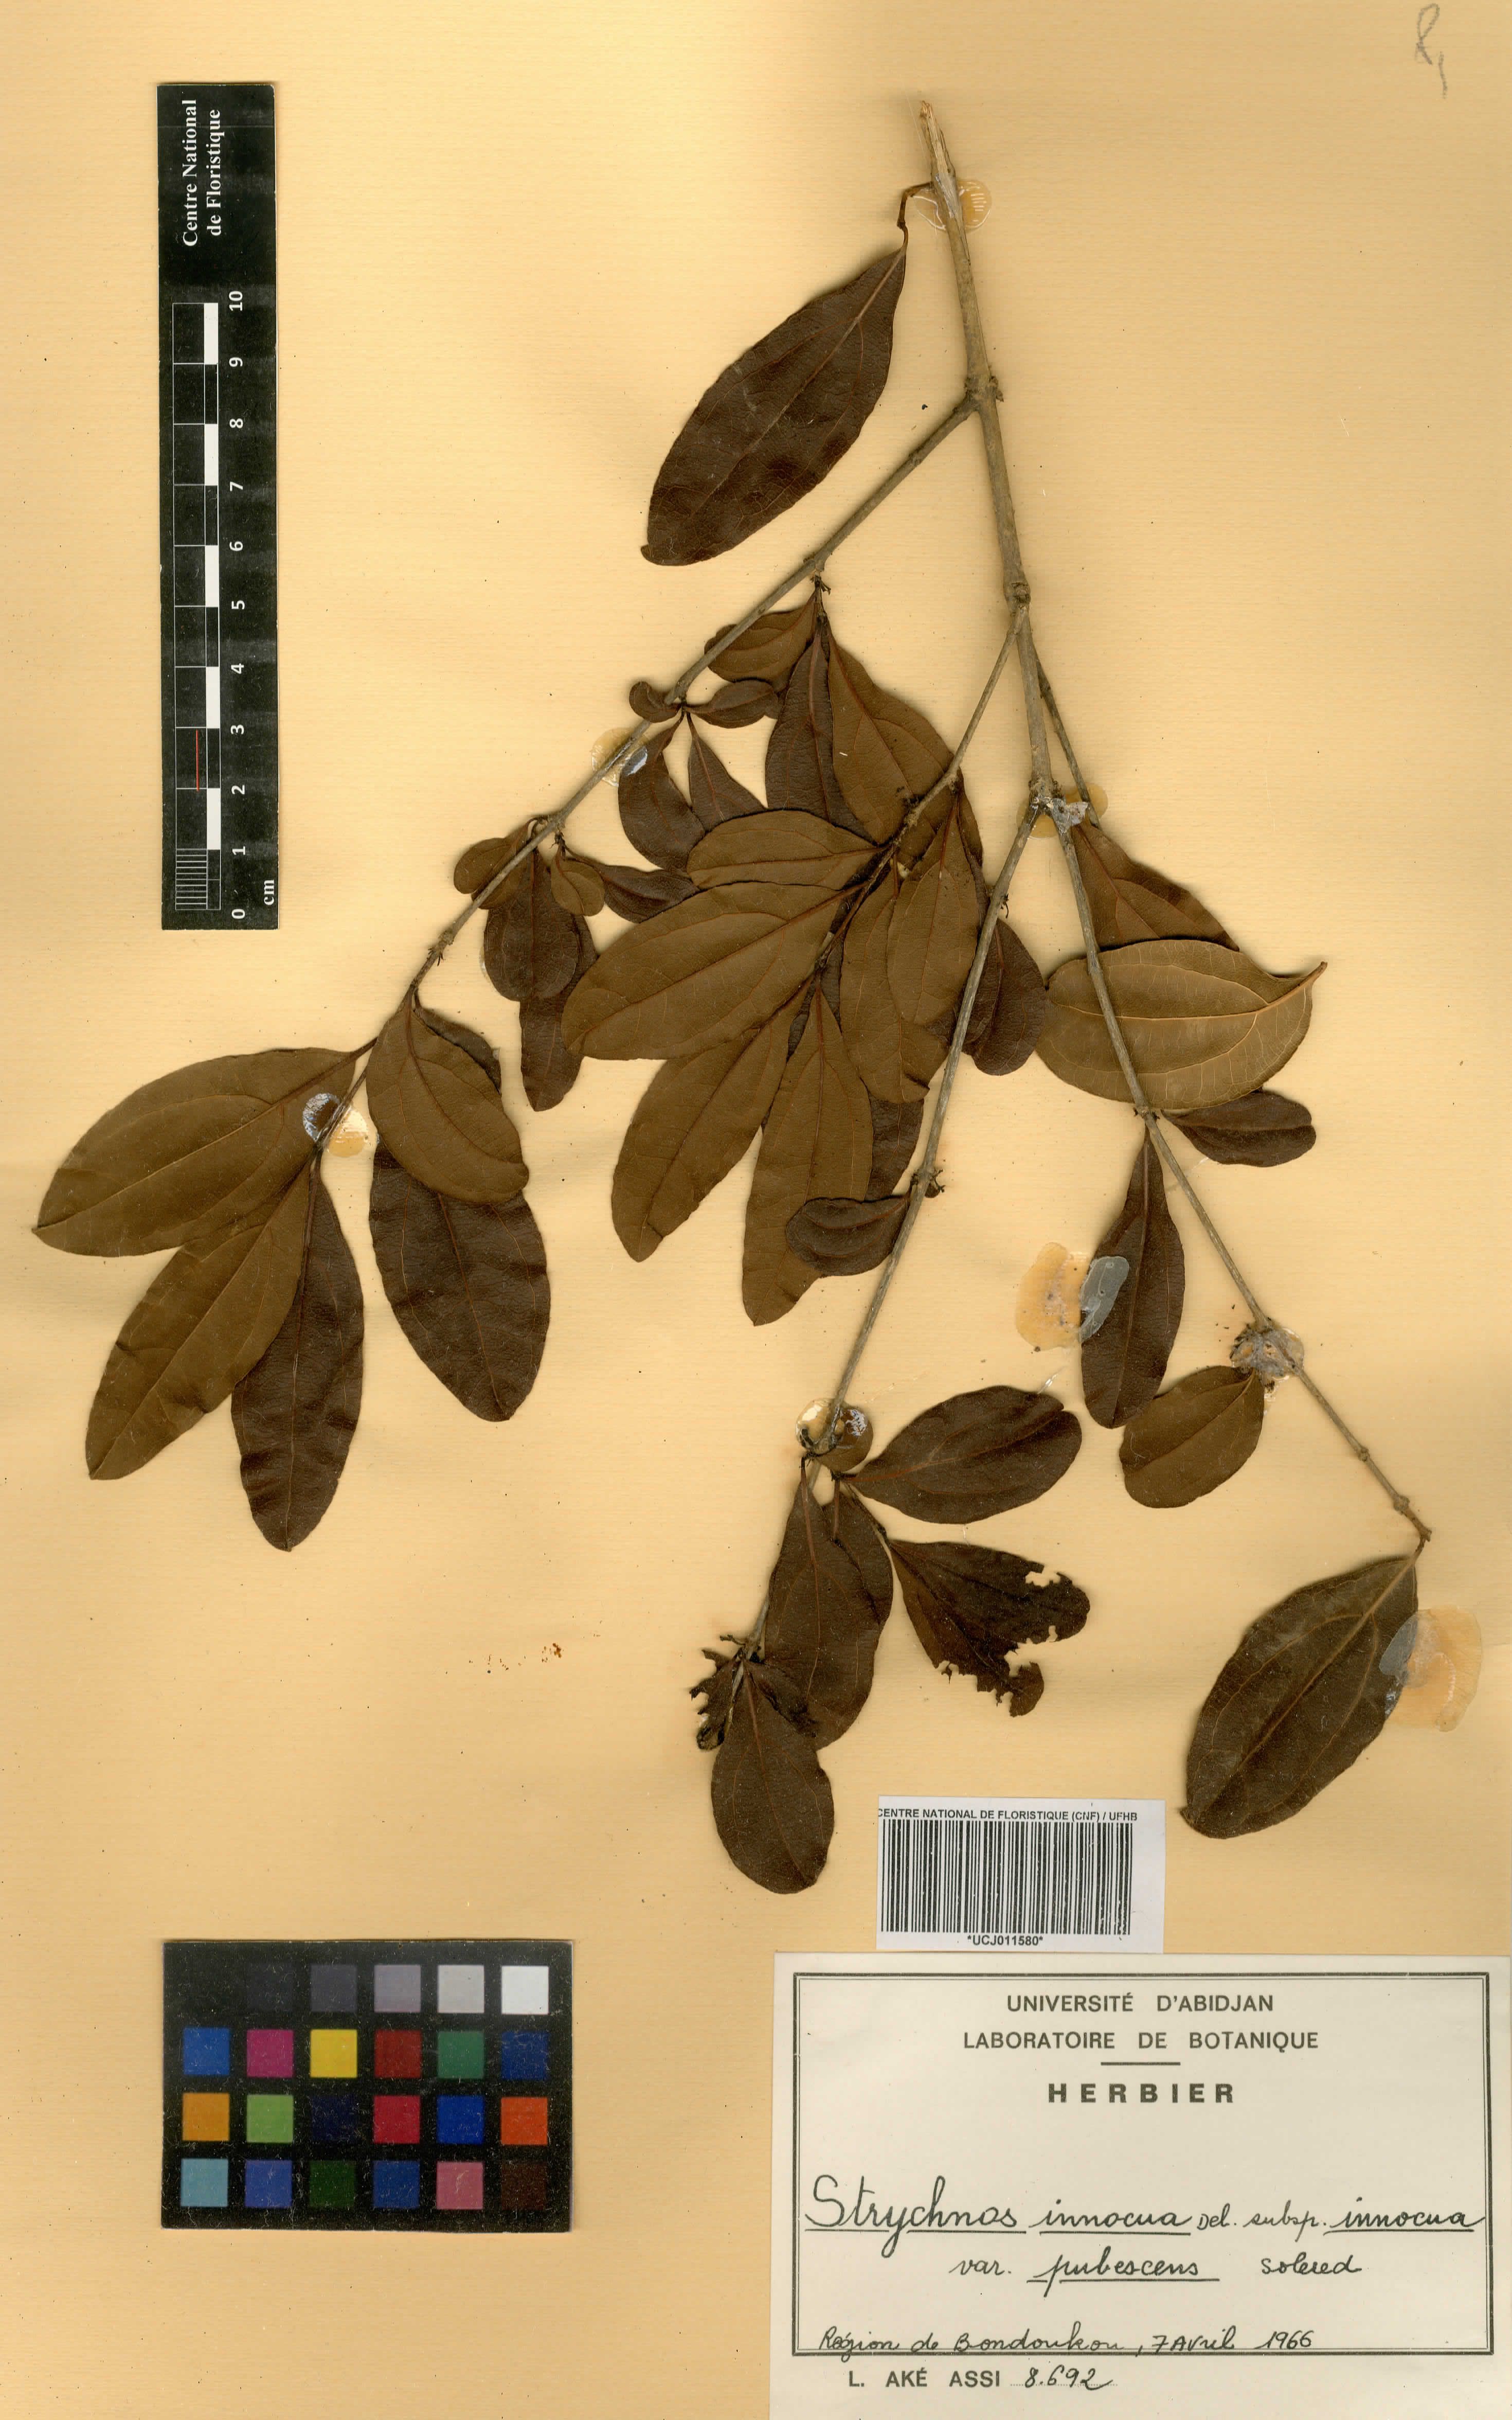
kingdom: Plantae
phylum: Tracheophyta
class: Magnoliopsida
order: Gentianales
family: Loganiaceae
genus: Strychnos
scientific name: Strychnos innocua
